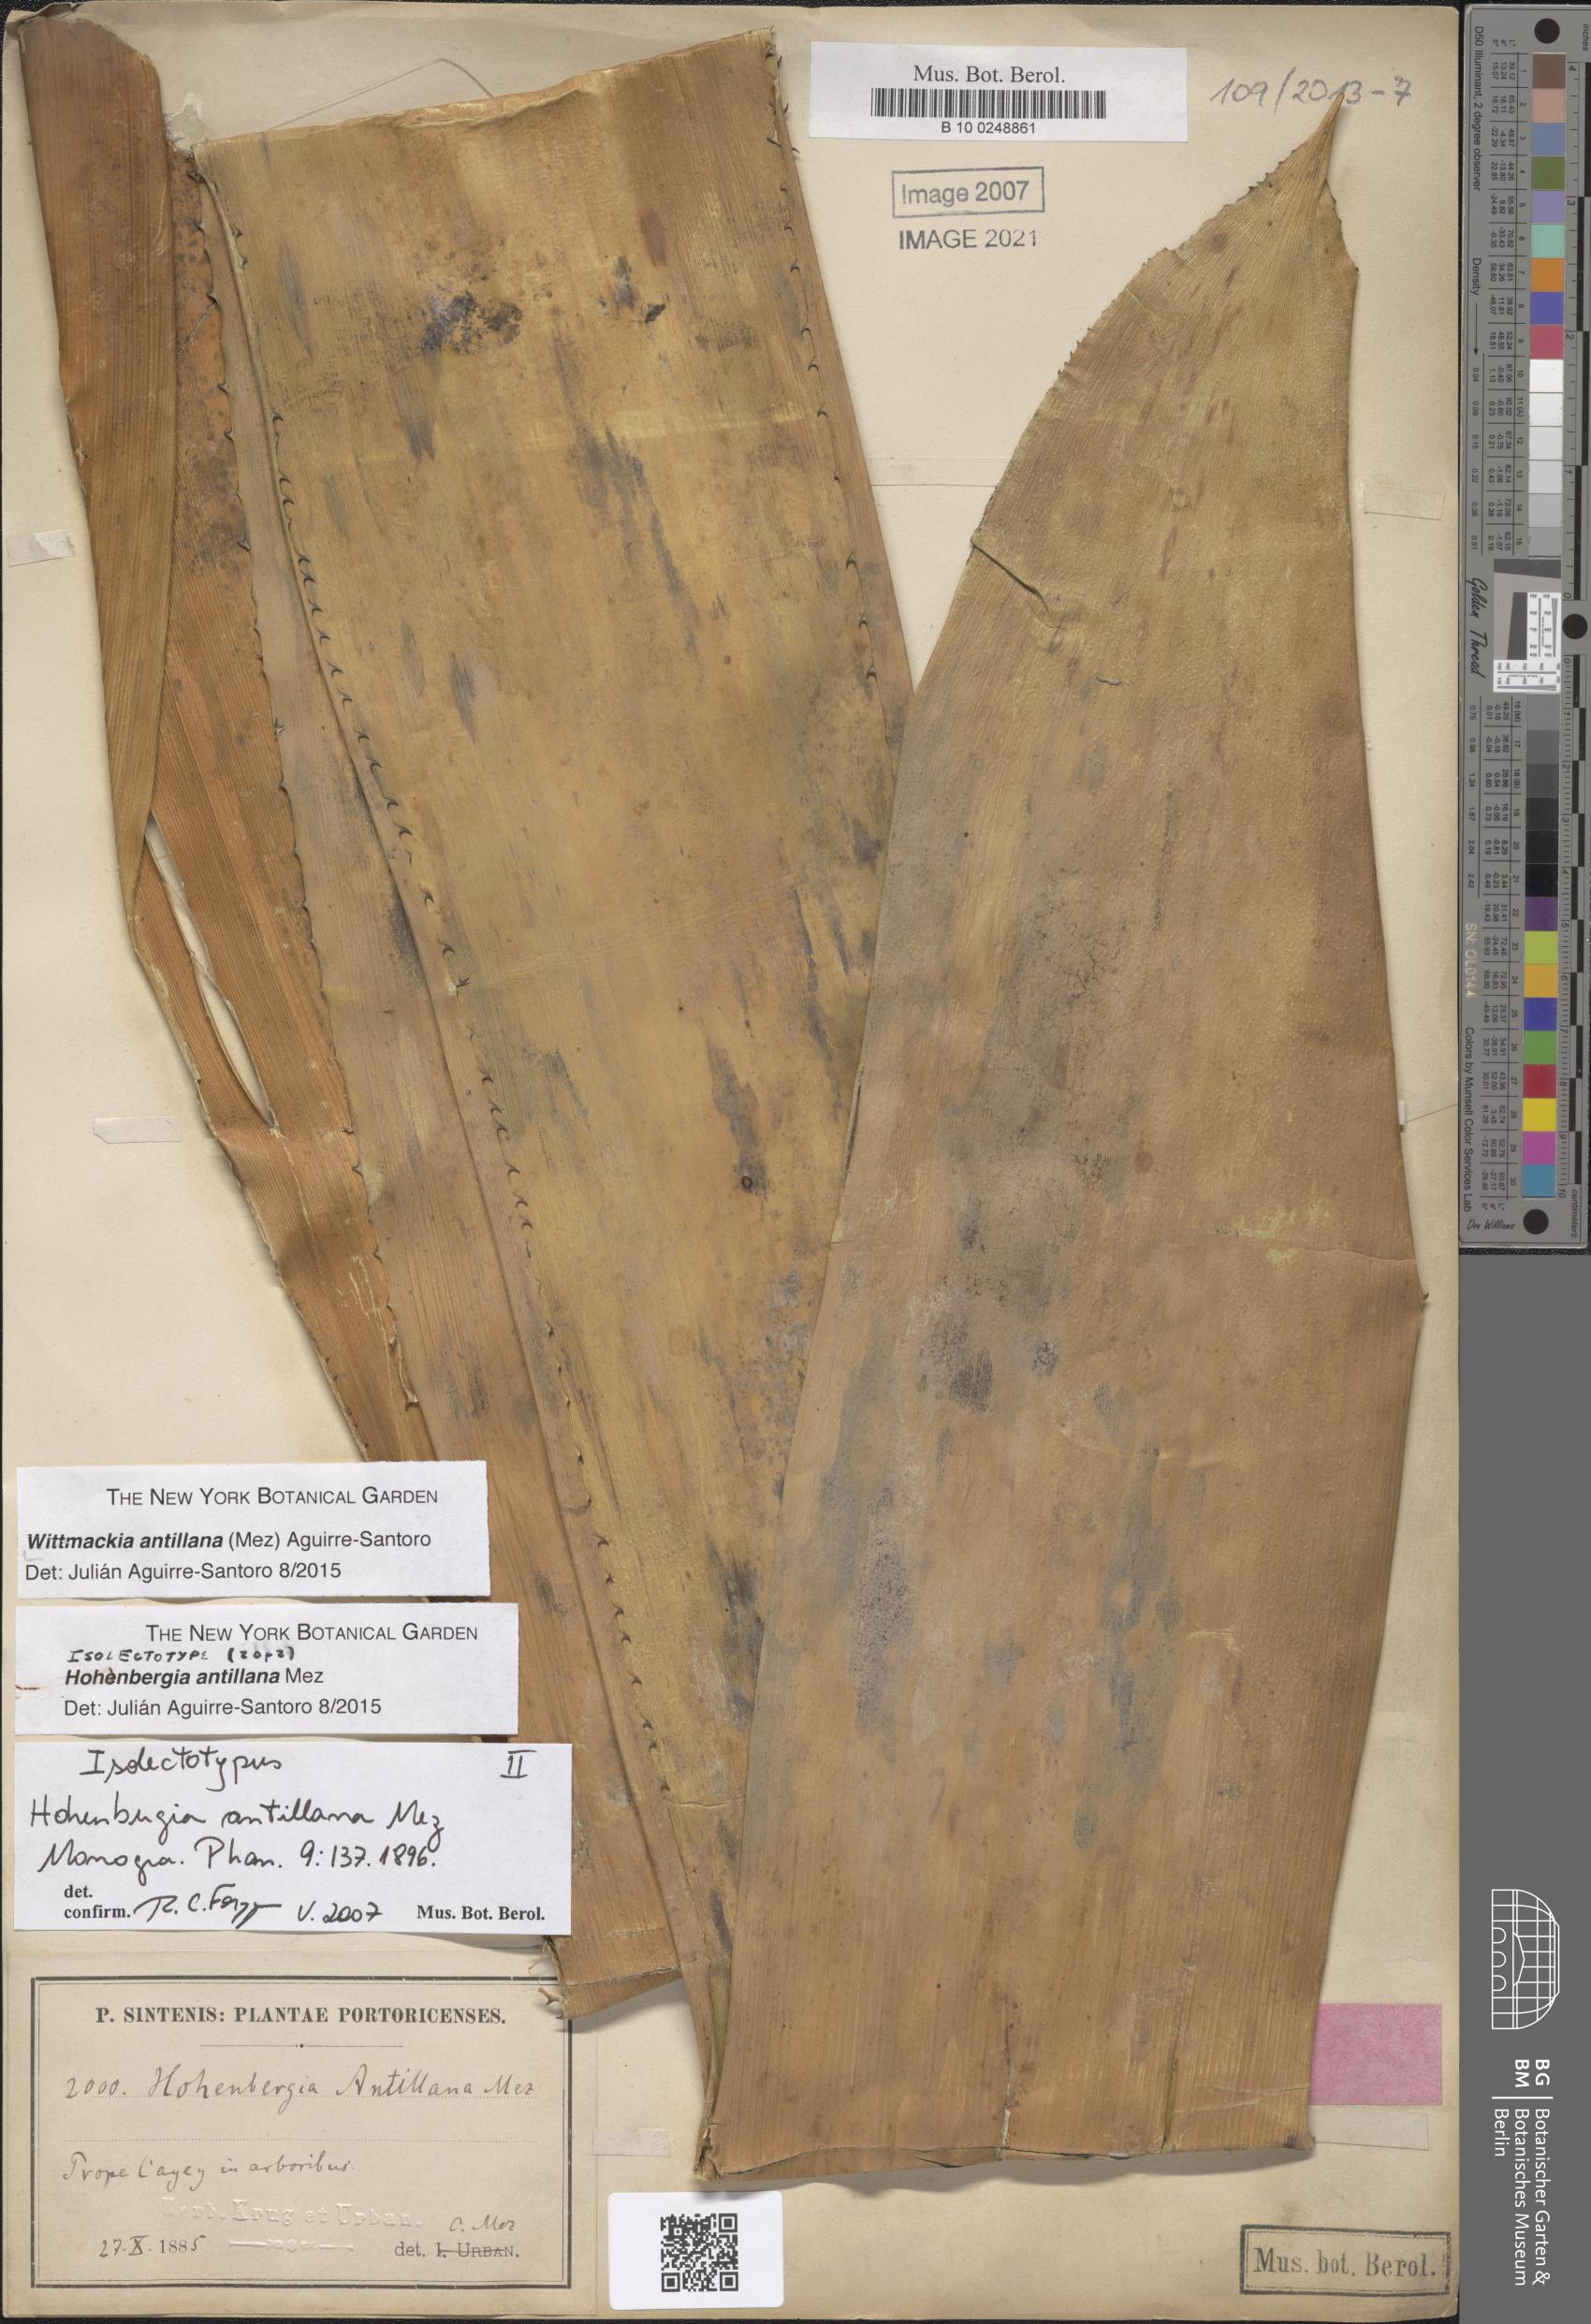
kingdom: Plantae
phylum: Tracheophyta
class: Liliopsida
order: Poales
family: Bromeliaceae
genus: Wittmackia
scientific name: Wittmackia antillana
